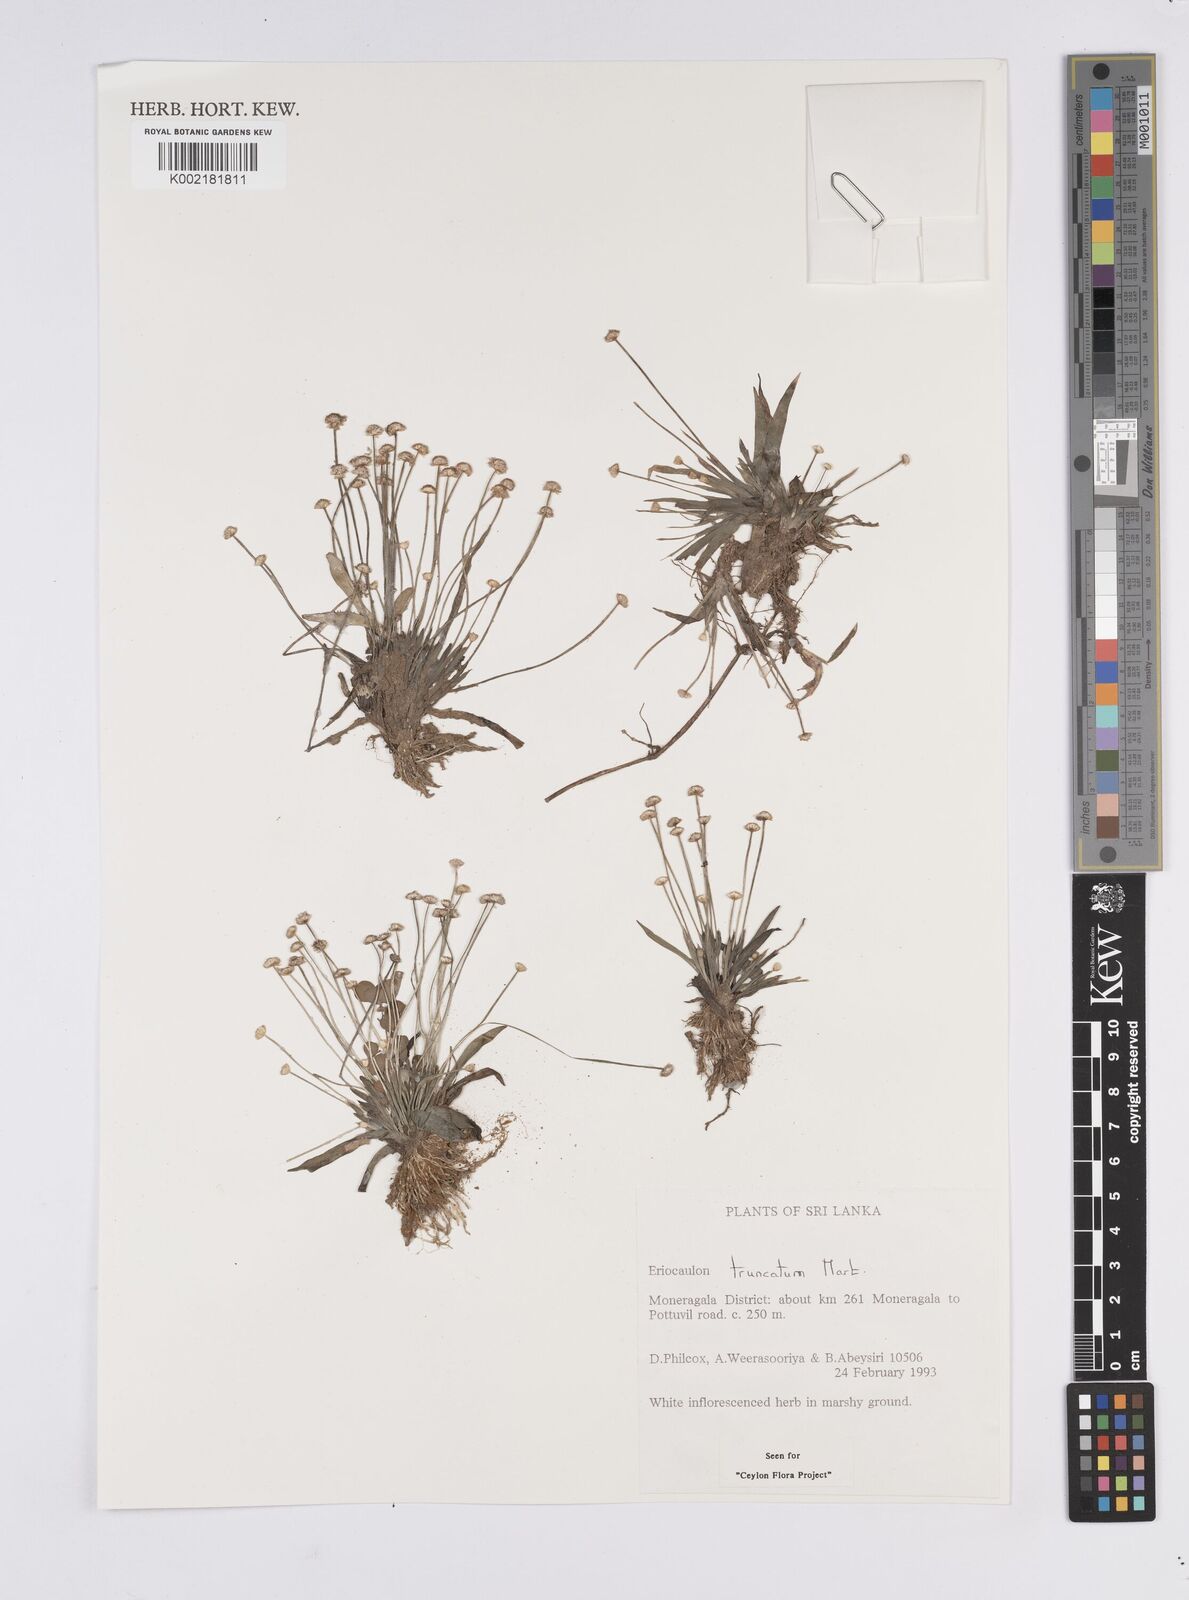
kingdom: Plantae
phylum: Tracheophyta
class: Liliopsida
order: Poales
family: Eriocaulaceae
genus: Eriocaulon
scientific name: Eriocaulon truncatum
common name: Short pipe-wort
